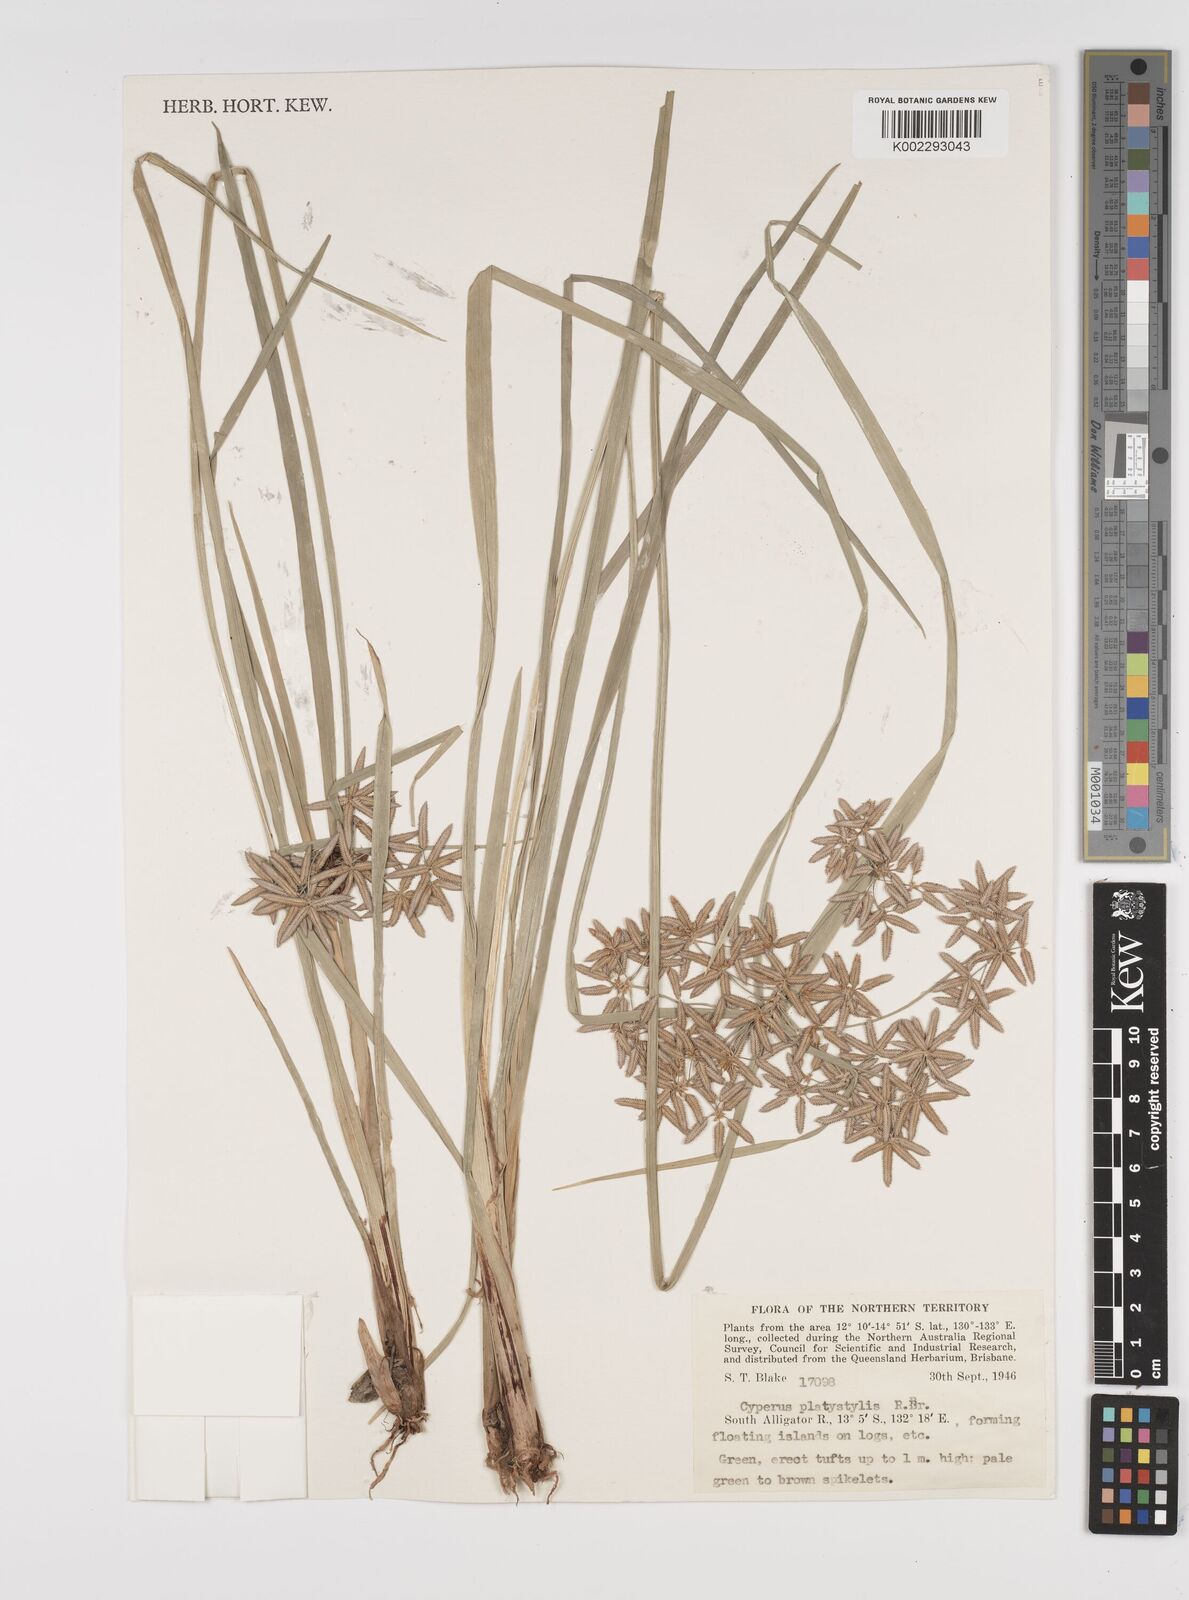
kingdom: Plantae
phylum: Tracheophyta
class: Liliopsida
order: Poales
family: Cyperaceae
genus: Cyperus
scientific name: Cyperus platystylis
